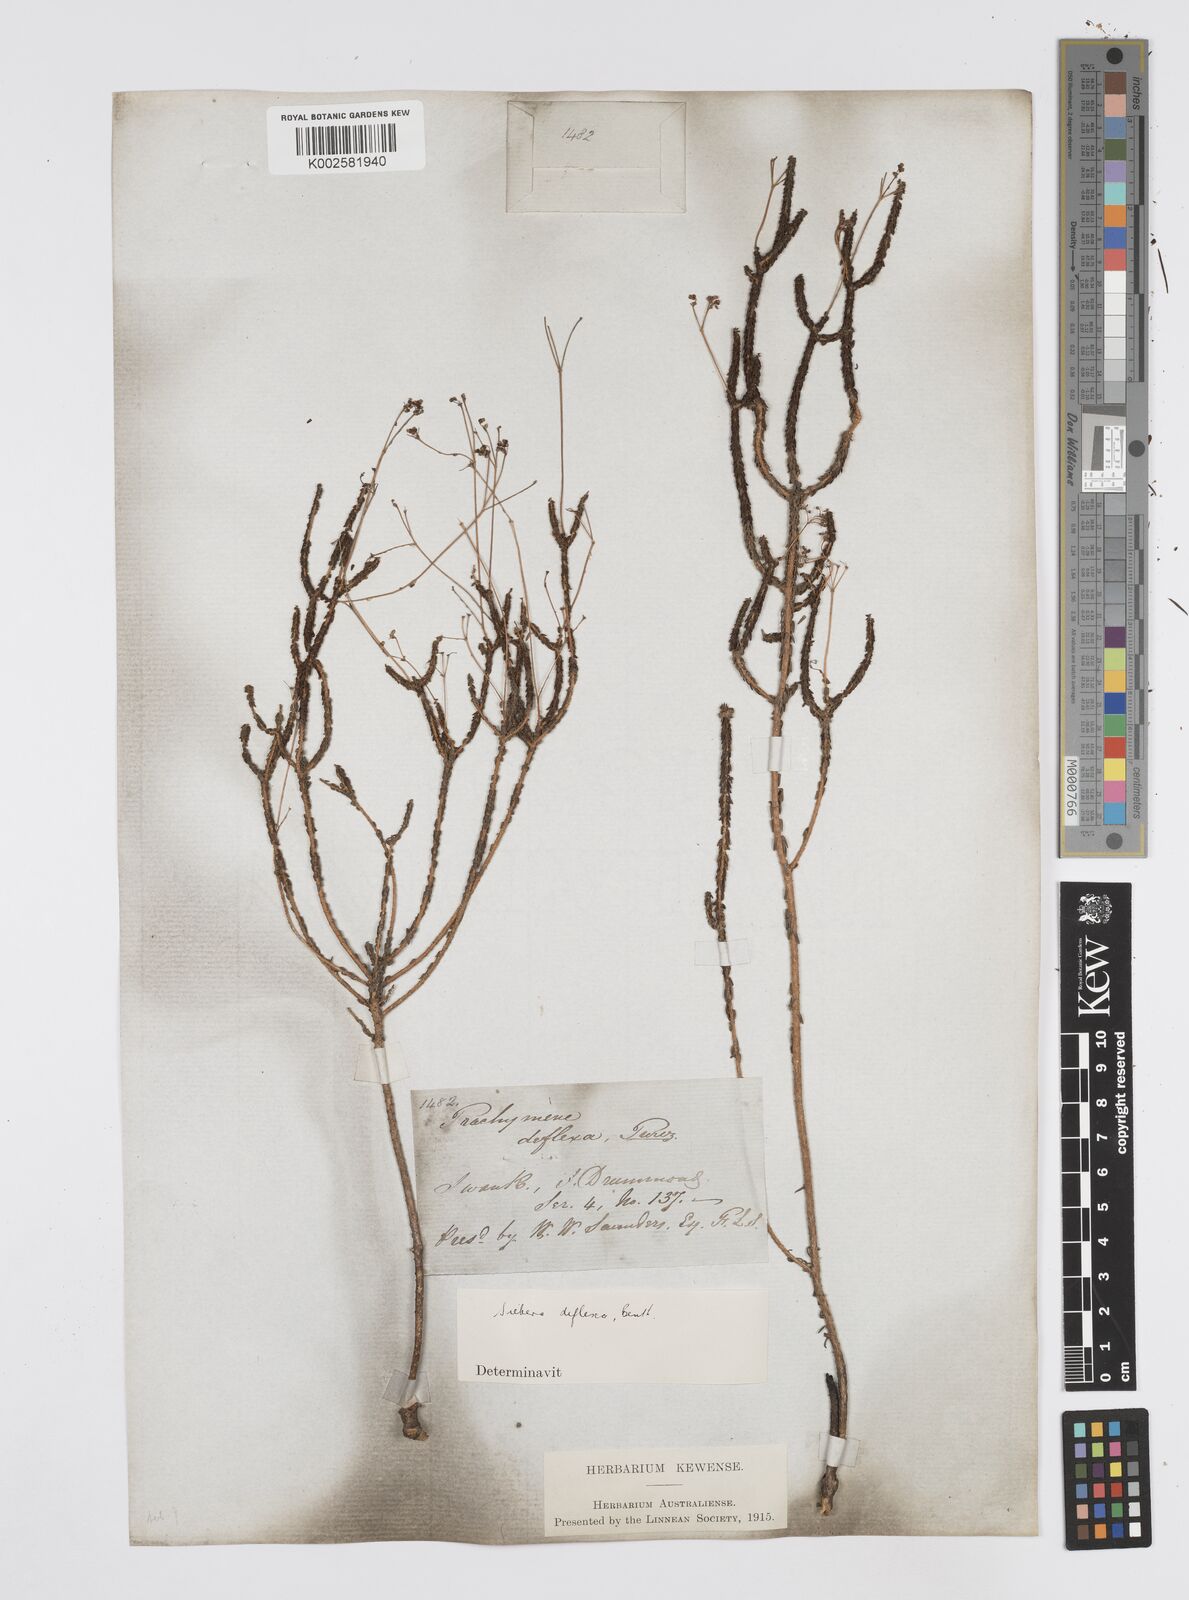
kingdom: Plantae
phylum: Tracheophyta
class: Magnoliopsida
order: Apiales
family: Apiaceae
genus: Platysace
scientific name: Platysace deflexa
